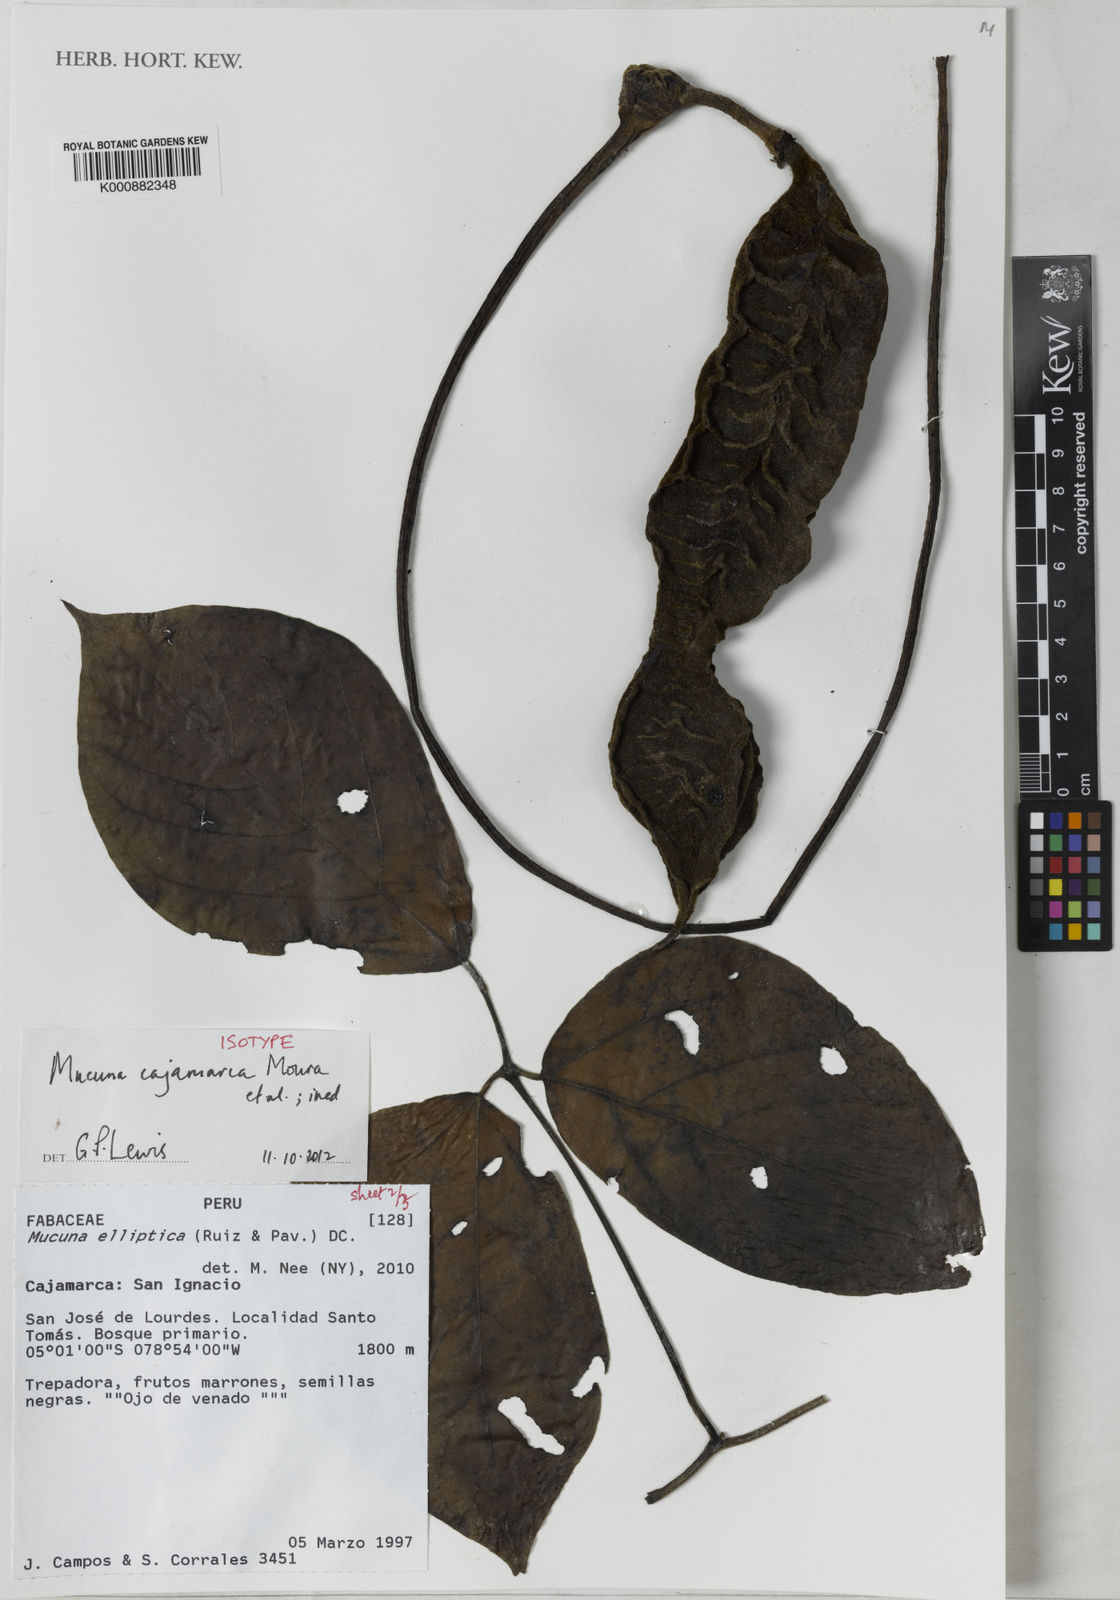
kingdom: Plantae
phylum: Tracheophyta
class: Magnoliopsida
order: Fabales
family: Fabaceae
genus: Mucuna
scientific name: Mucuna
